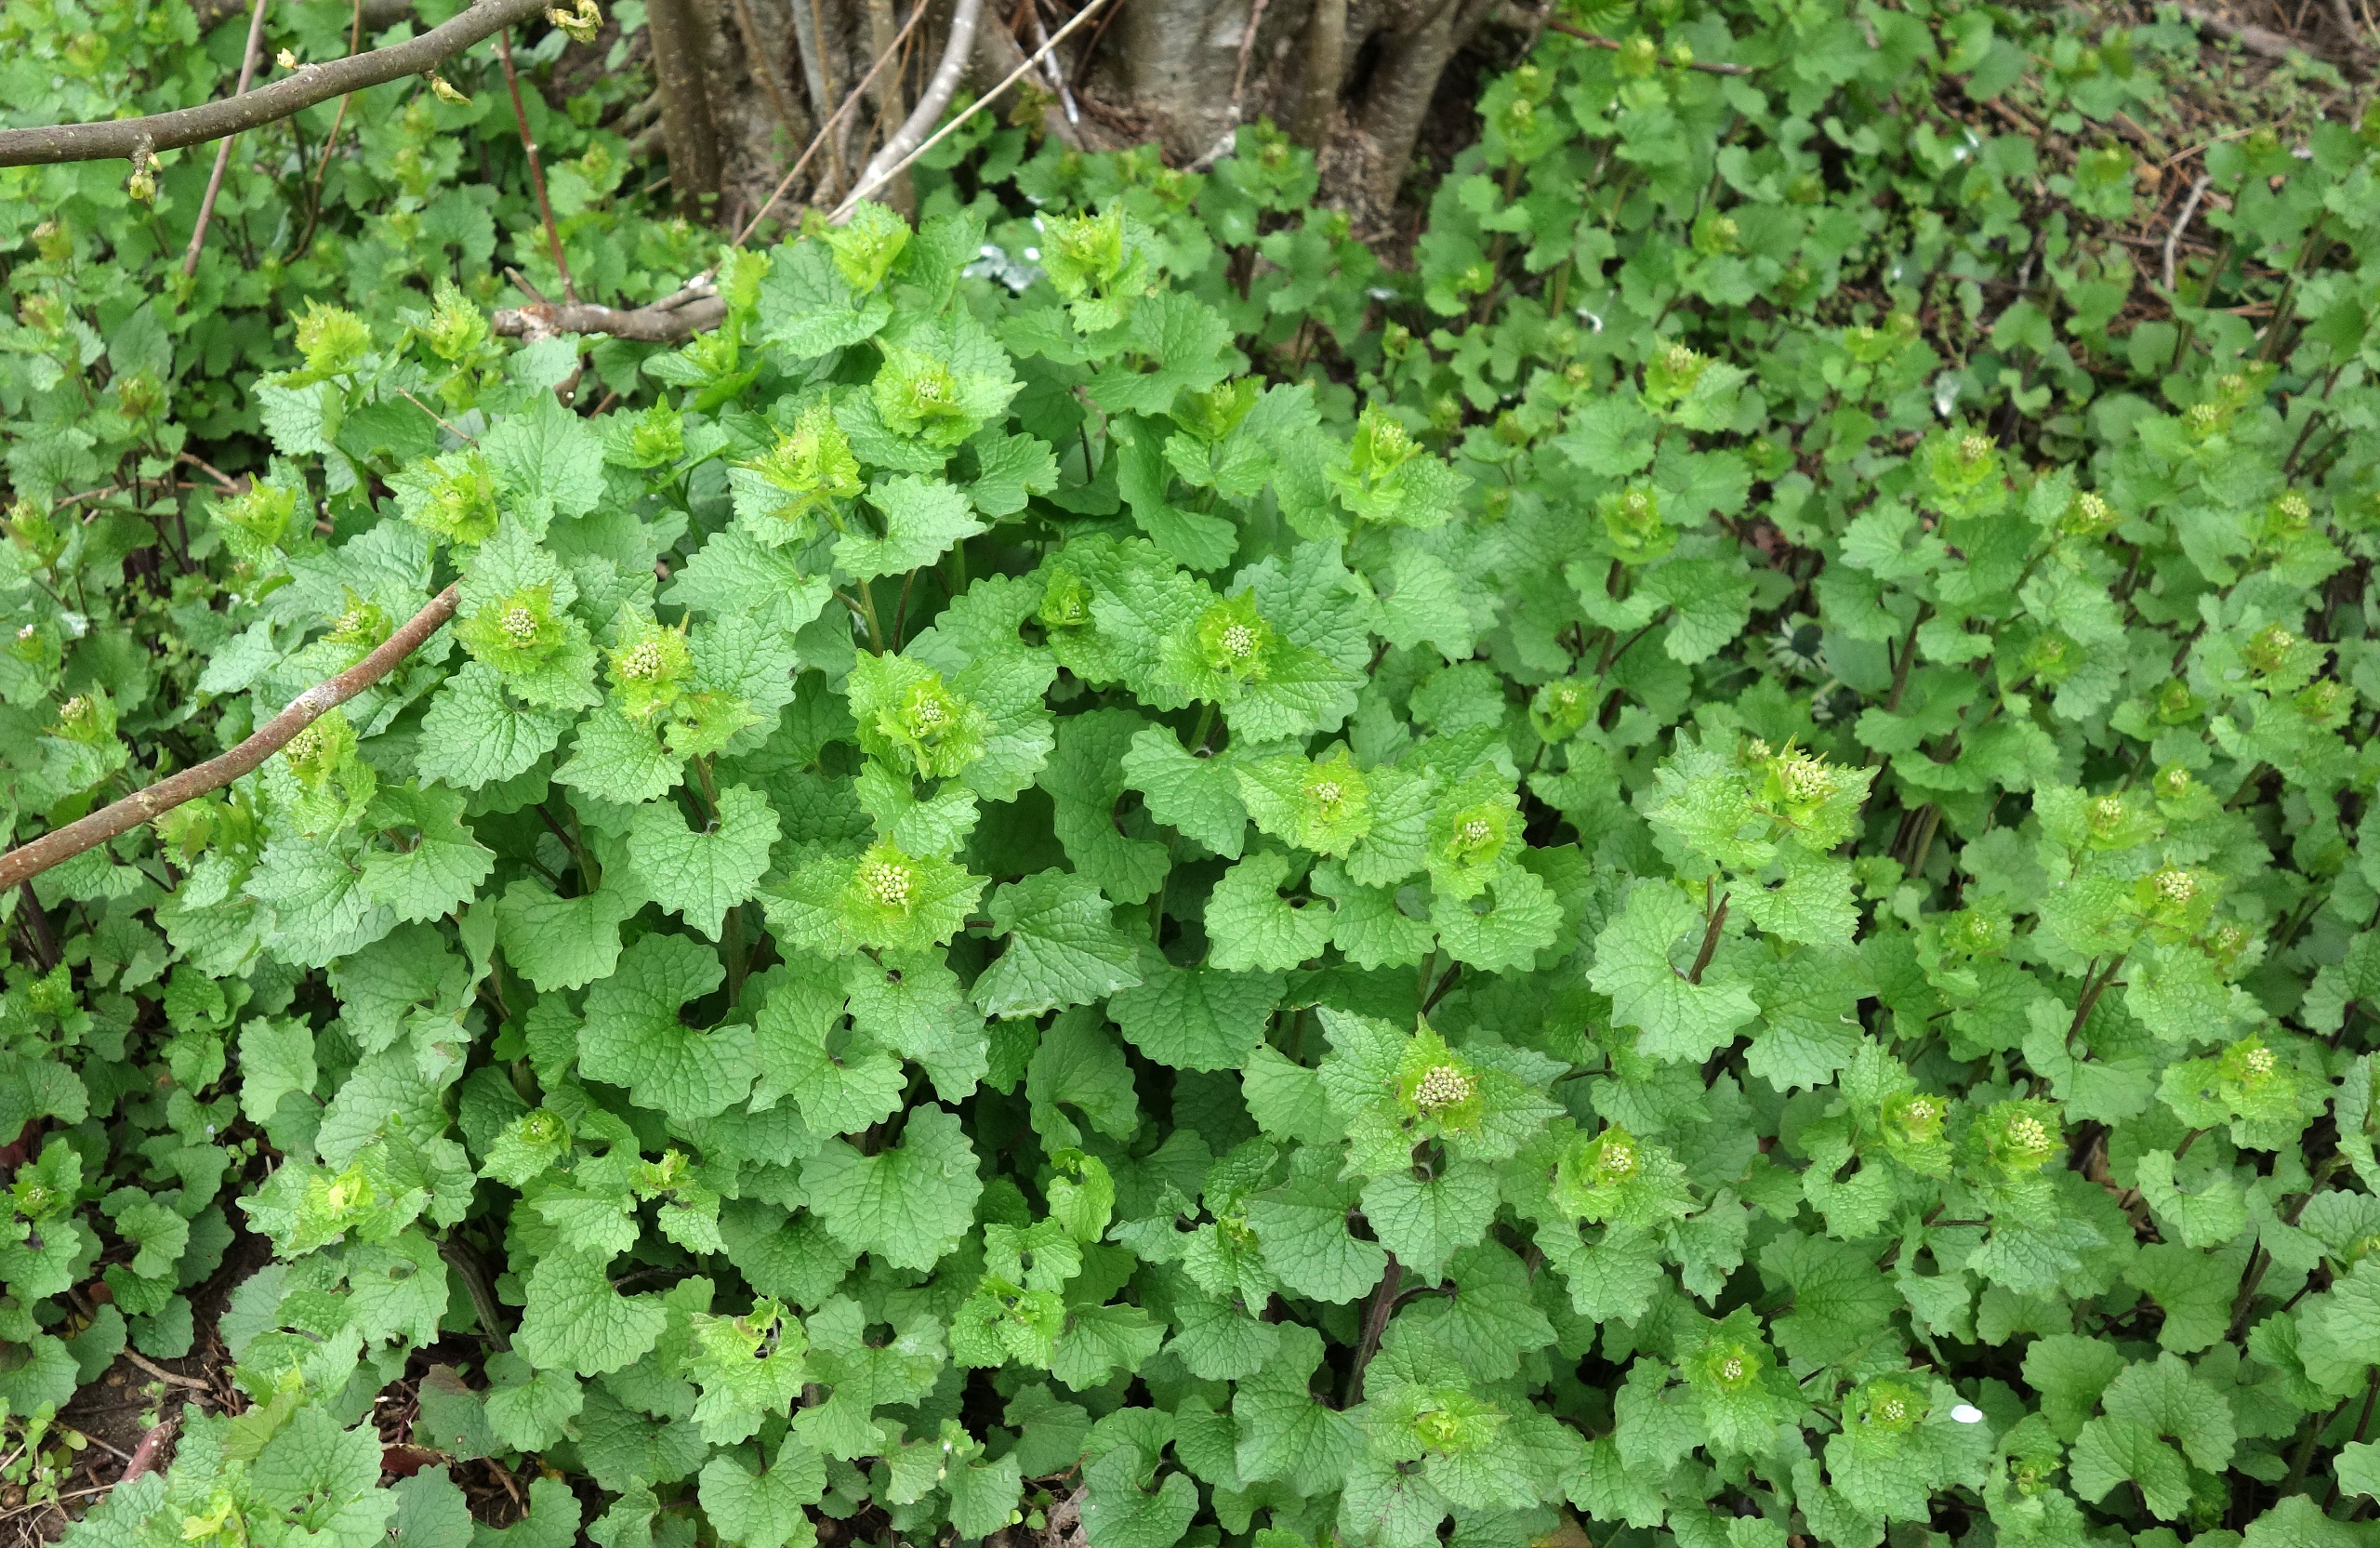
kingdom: Plantae
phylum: Tracheophyta
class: Magnoliopsida
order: Brassicales
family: Brassicaceae
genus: Alliaria
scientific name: Alliaria petiolata
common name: Løgkarse
